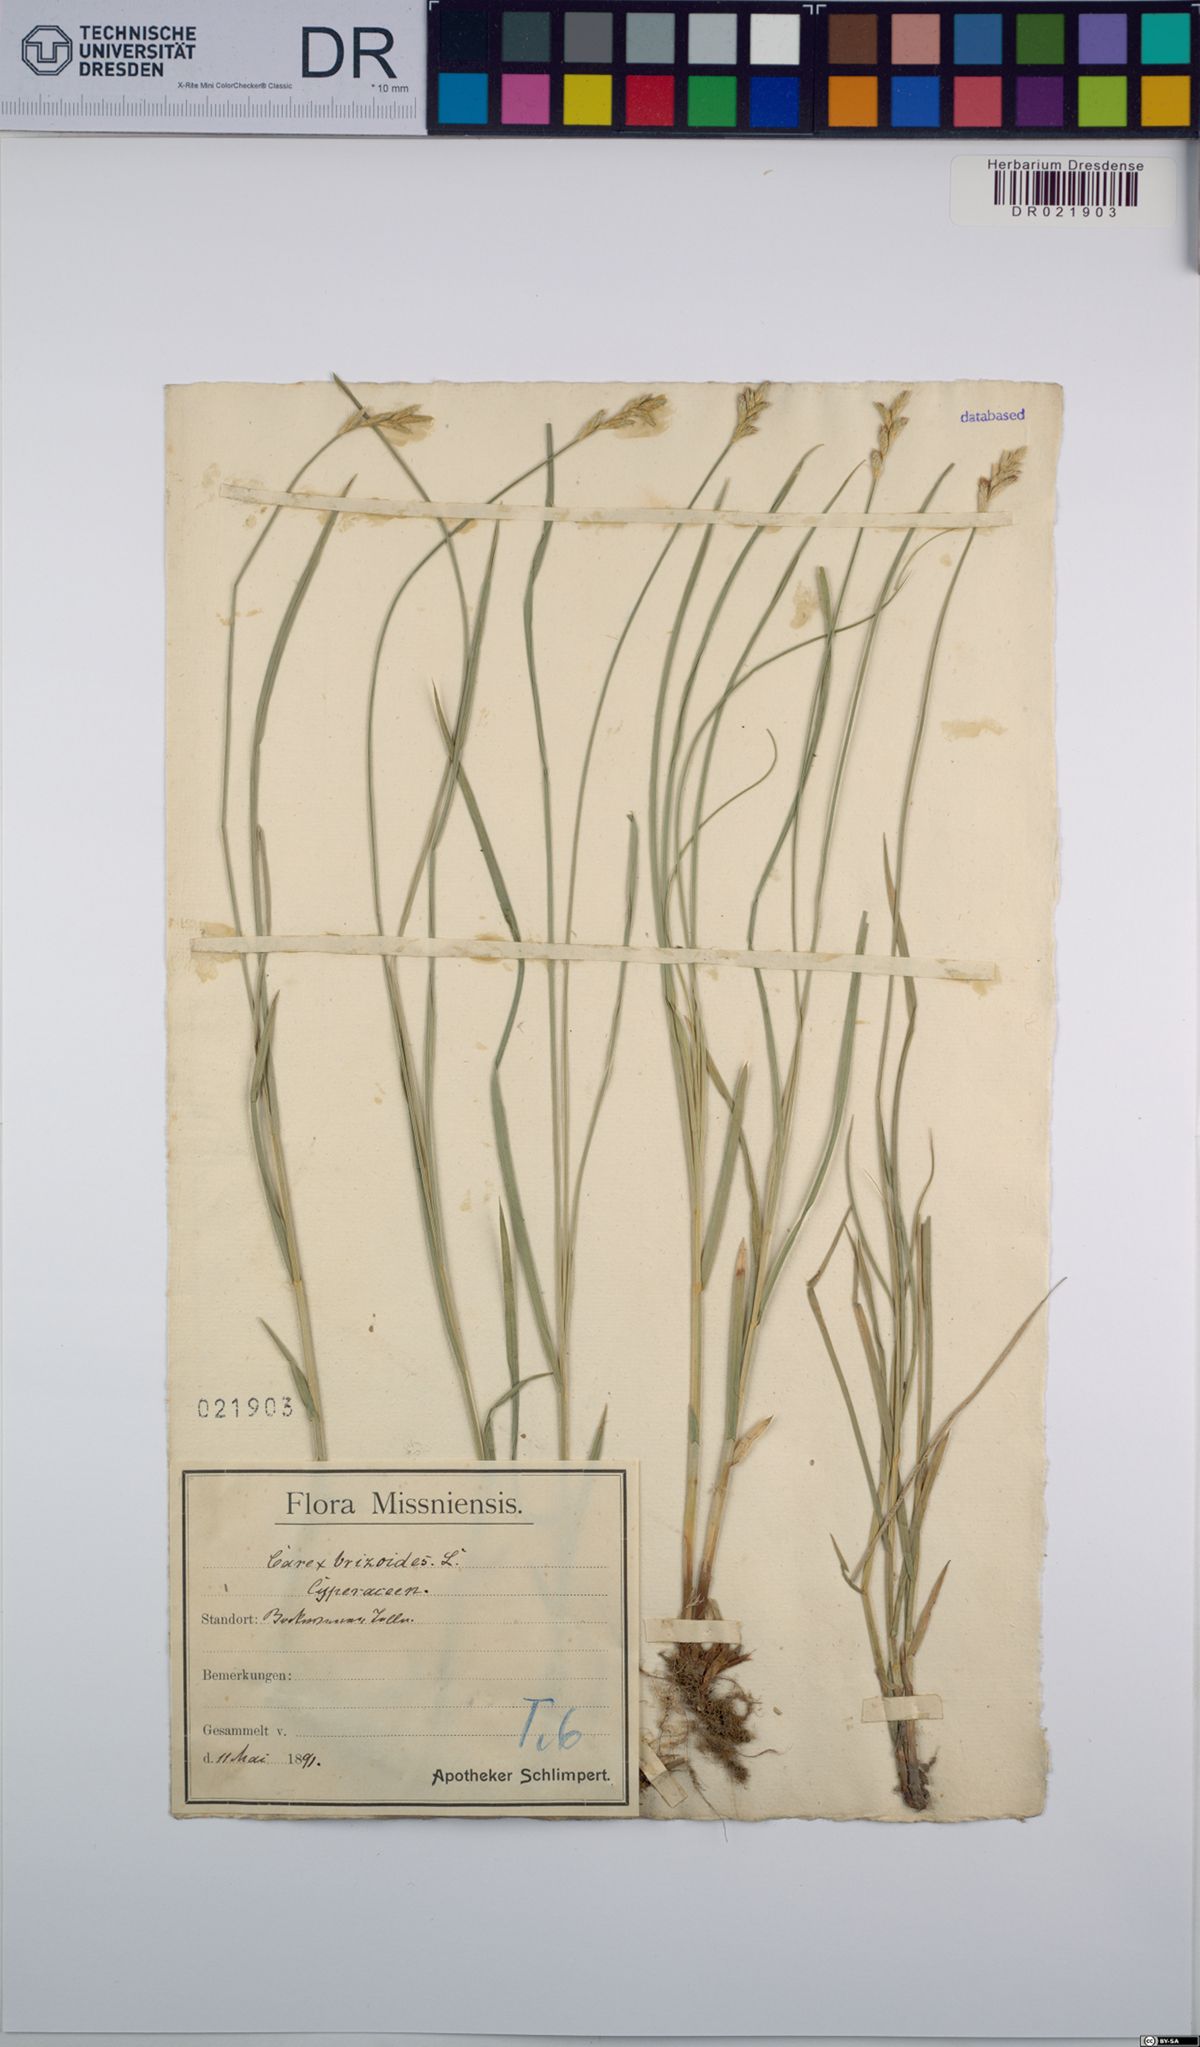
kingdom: Plantae
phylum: Tracheophyta
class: Liliopsida
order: Poales
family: Cyperaceae
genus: Carex
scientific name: Carex brizoides
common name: Quaking-grass sedge
